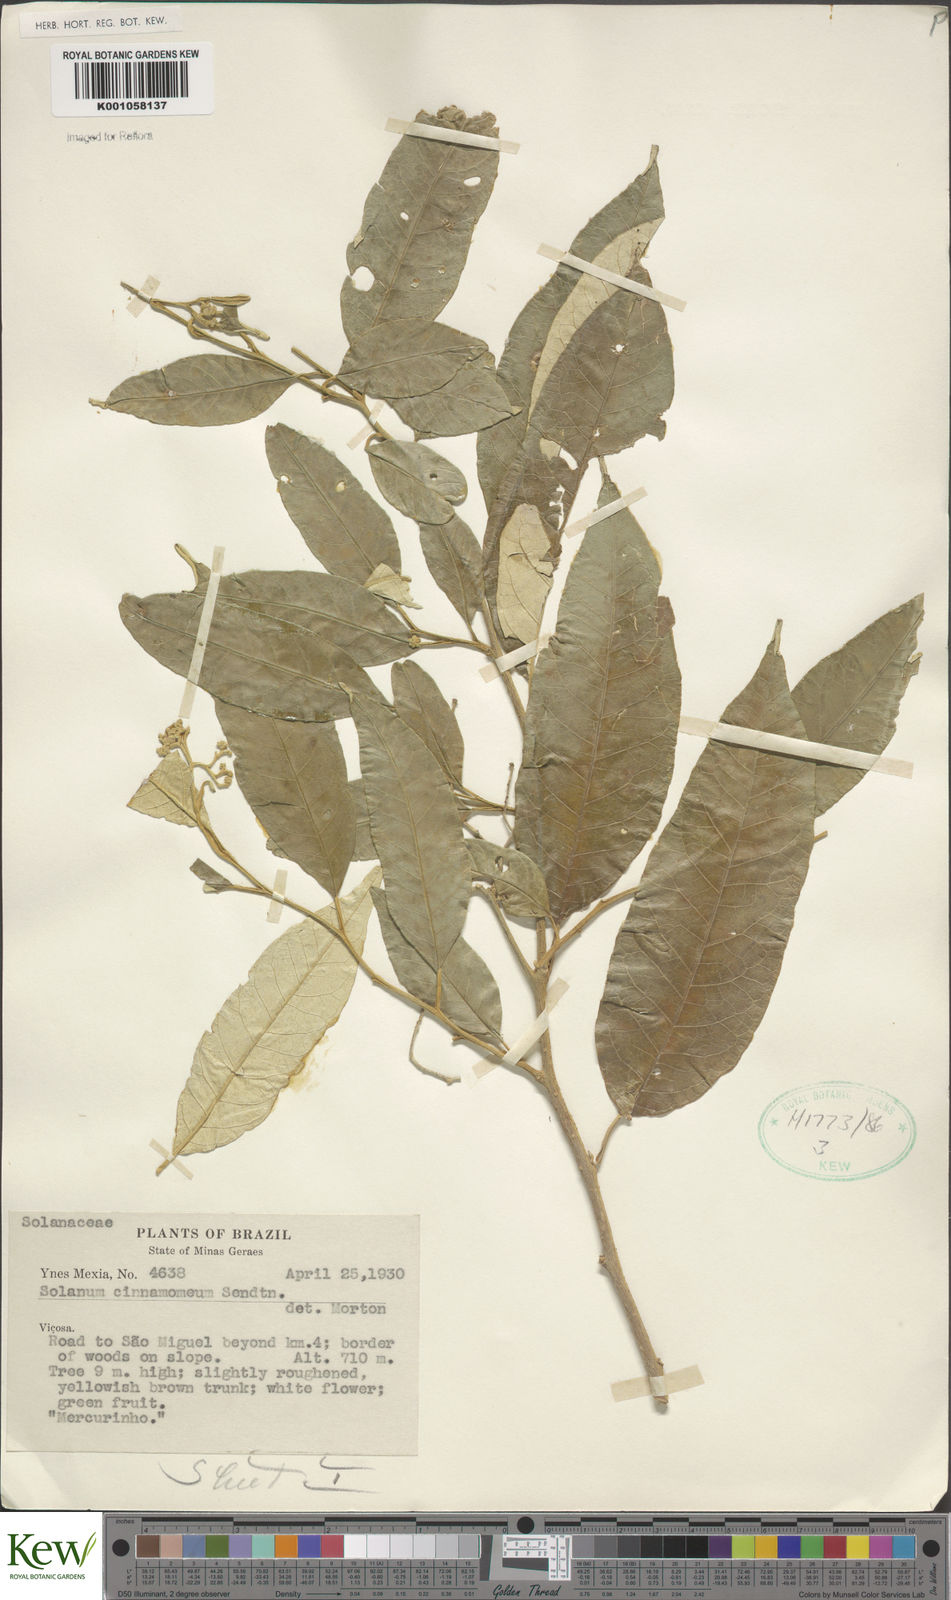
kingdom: Plantae
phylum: Tracheophyta
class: Magnoliopsida
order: Solanales
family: Solanaceae
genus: Solanum
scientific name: Solanum cinnamomeum
